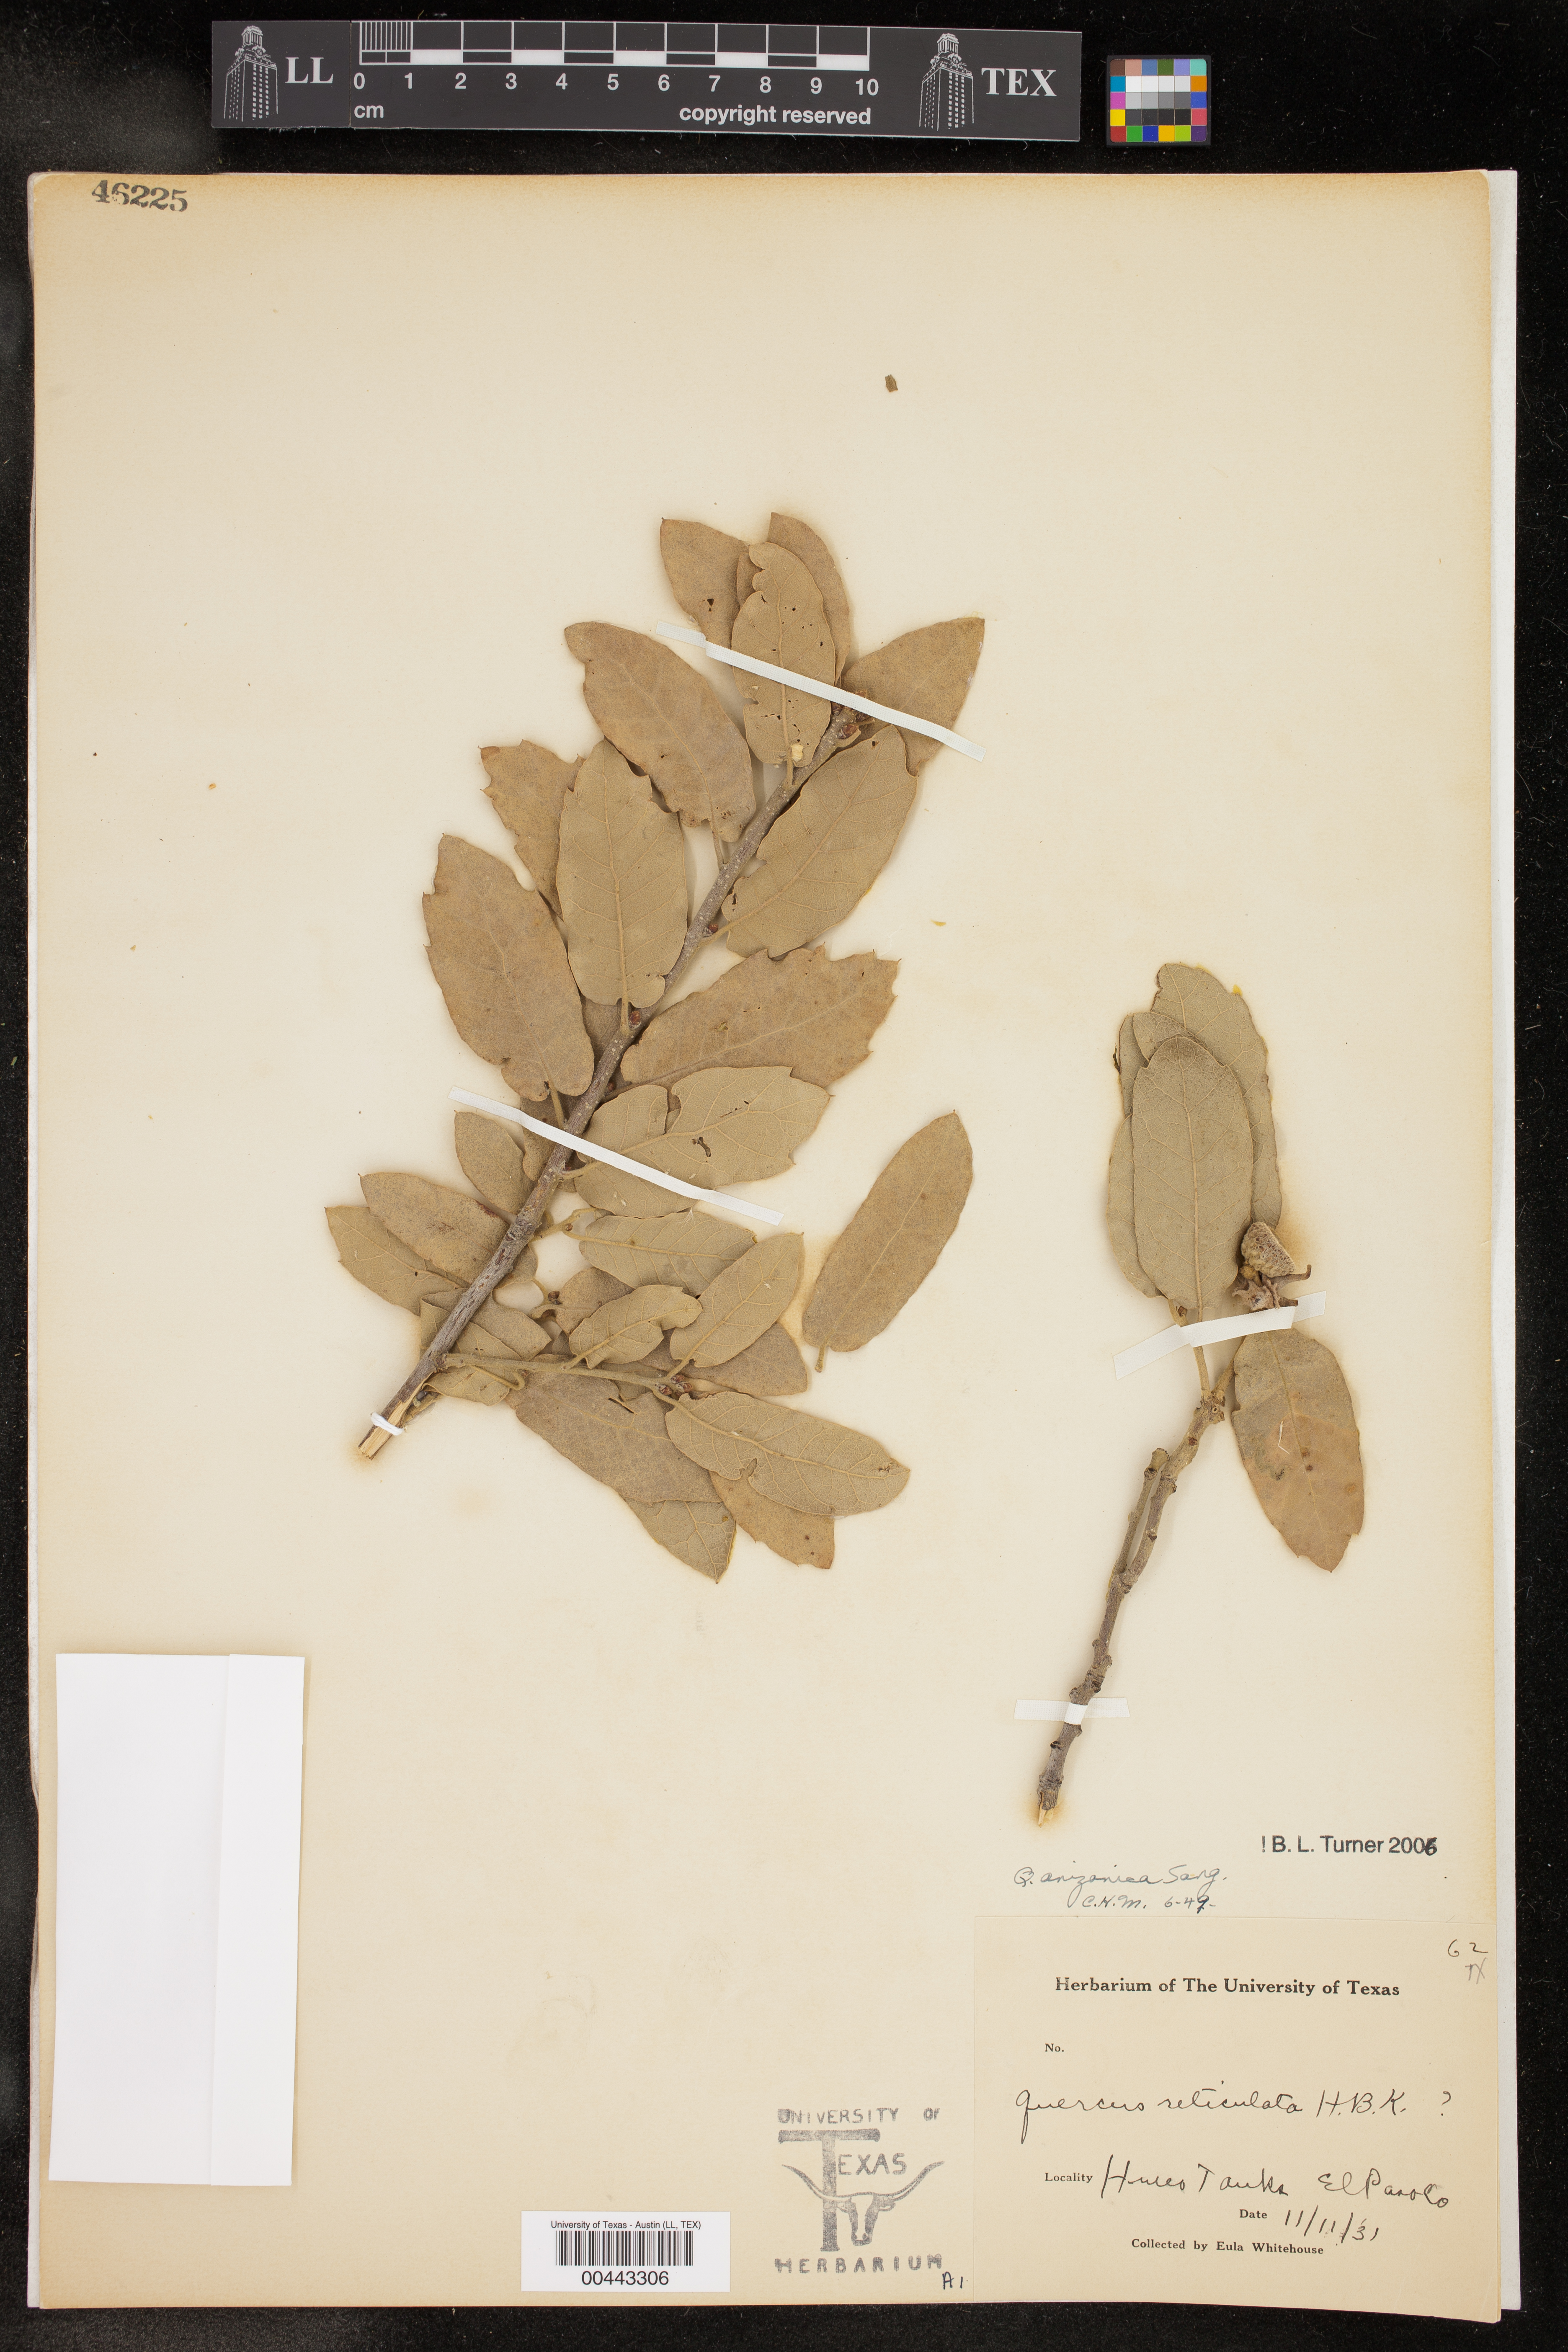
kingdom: Plantae
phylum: Tracheophyta
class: Magnoliopsida
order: Fagales
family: Fagaceae
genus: Quercus
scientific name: Quercus arizonica
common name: Arizona white oak
